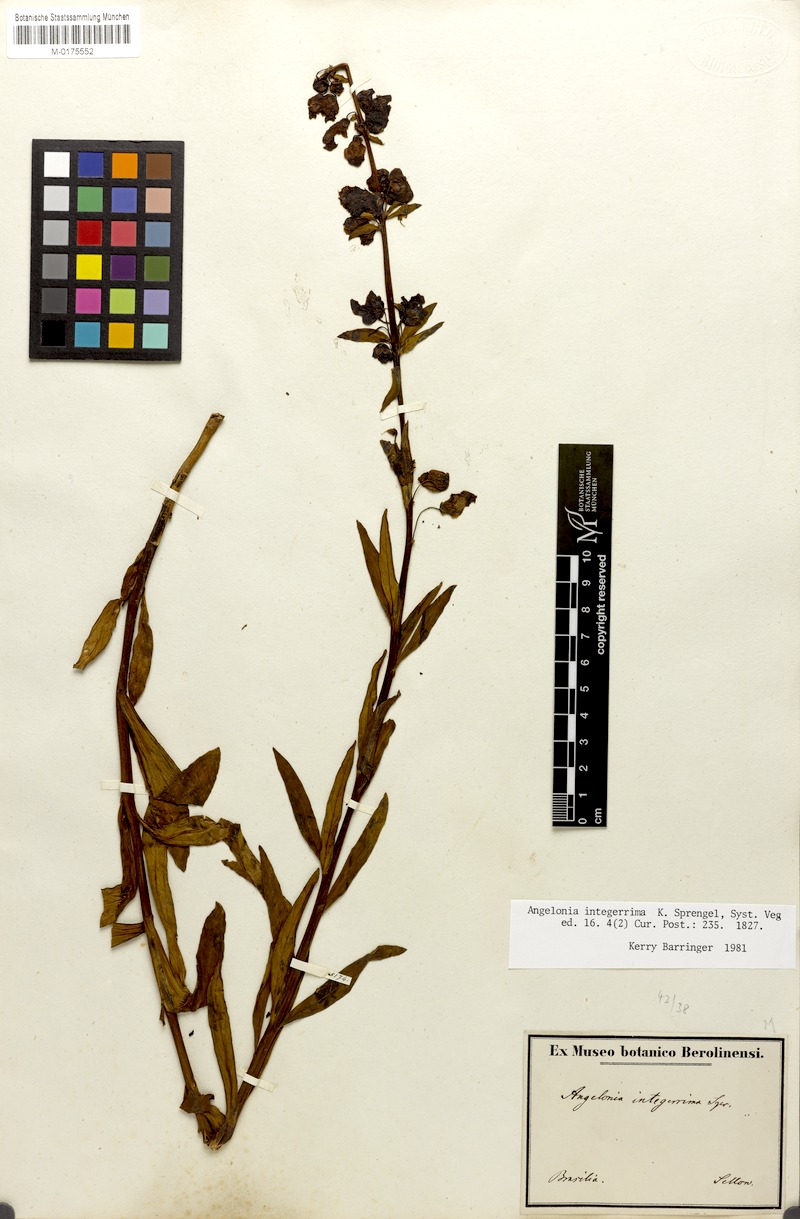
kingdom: Plantae
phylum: Tracheophyta
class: Magnoliopsida
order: Lamiales
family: Plantaginaceae
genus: Angelonia
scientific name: Angelonia integerrima
